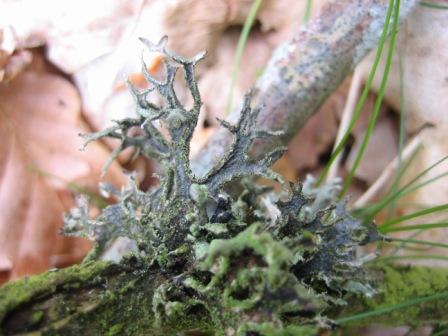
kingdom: Fungi
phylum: Ascomycota
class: Lecanoromycetes
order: Lecanorales
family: Parmeliaceae
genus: Pseudevernia
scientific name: Pseudevernia furfuracea
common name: grå fyrrelav
